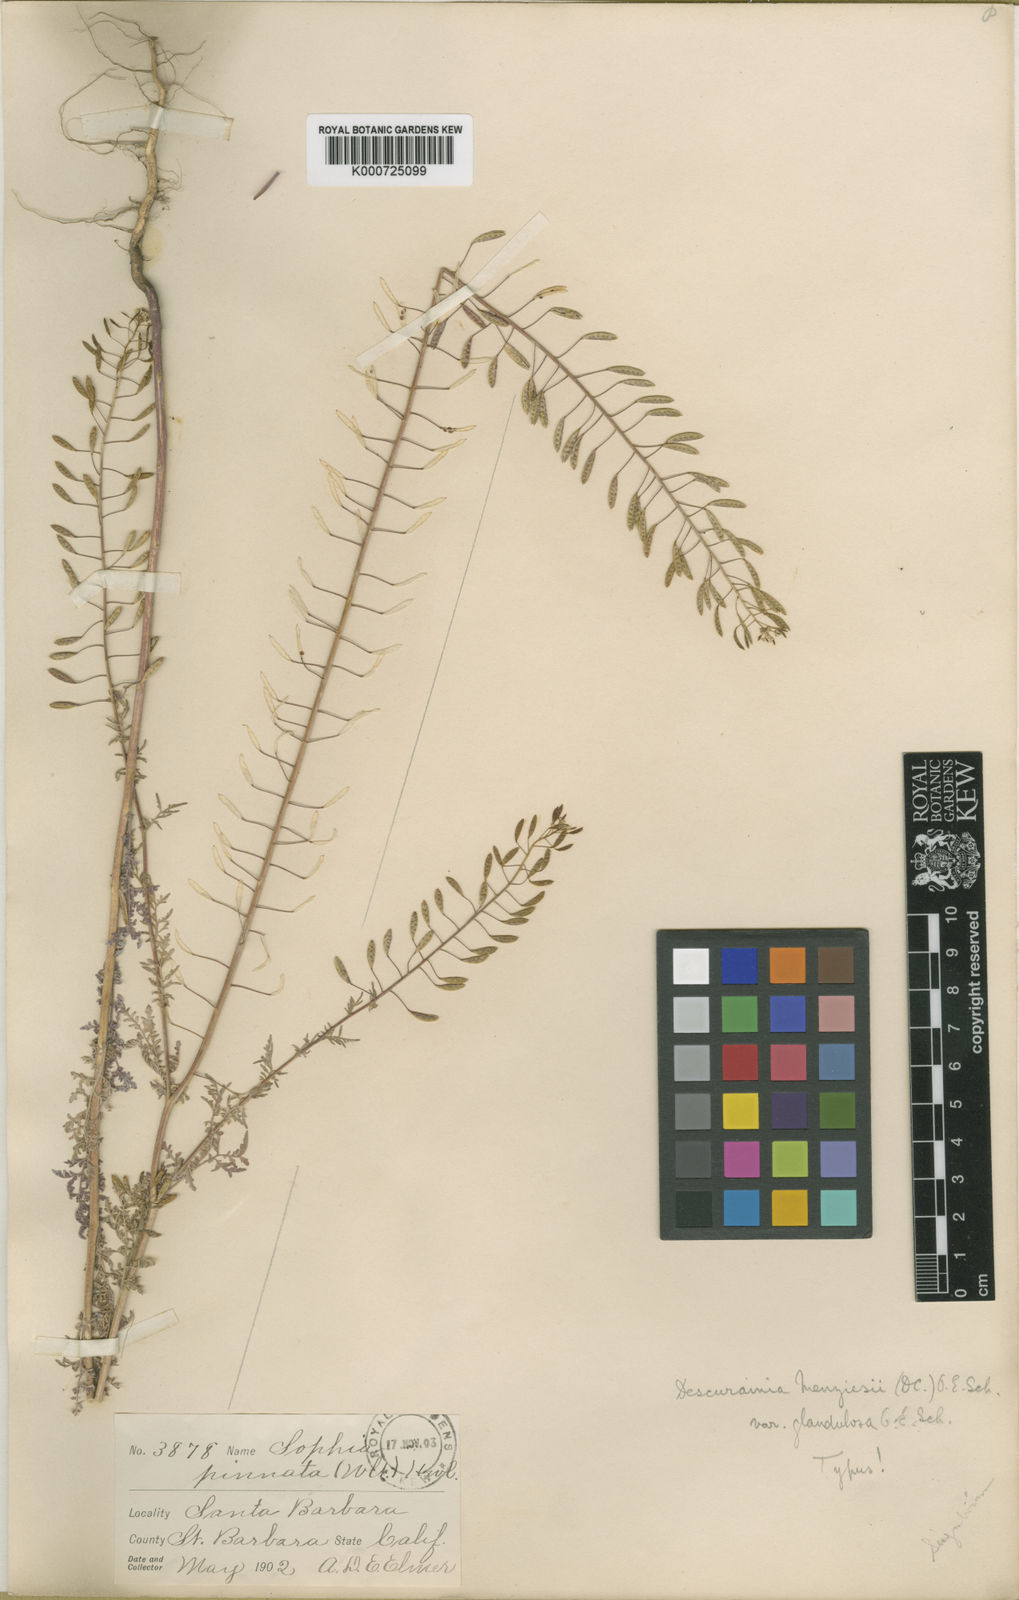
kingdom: Plantae
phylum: Tracheophyta
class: Magnoliopsida
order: Brassicales
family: Brassicaceae
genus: Descurainia
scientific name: Descurainia pinnata
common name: Western tansy mustard
